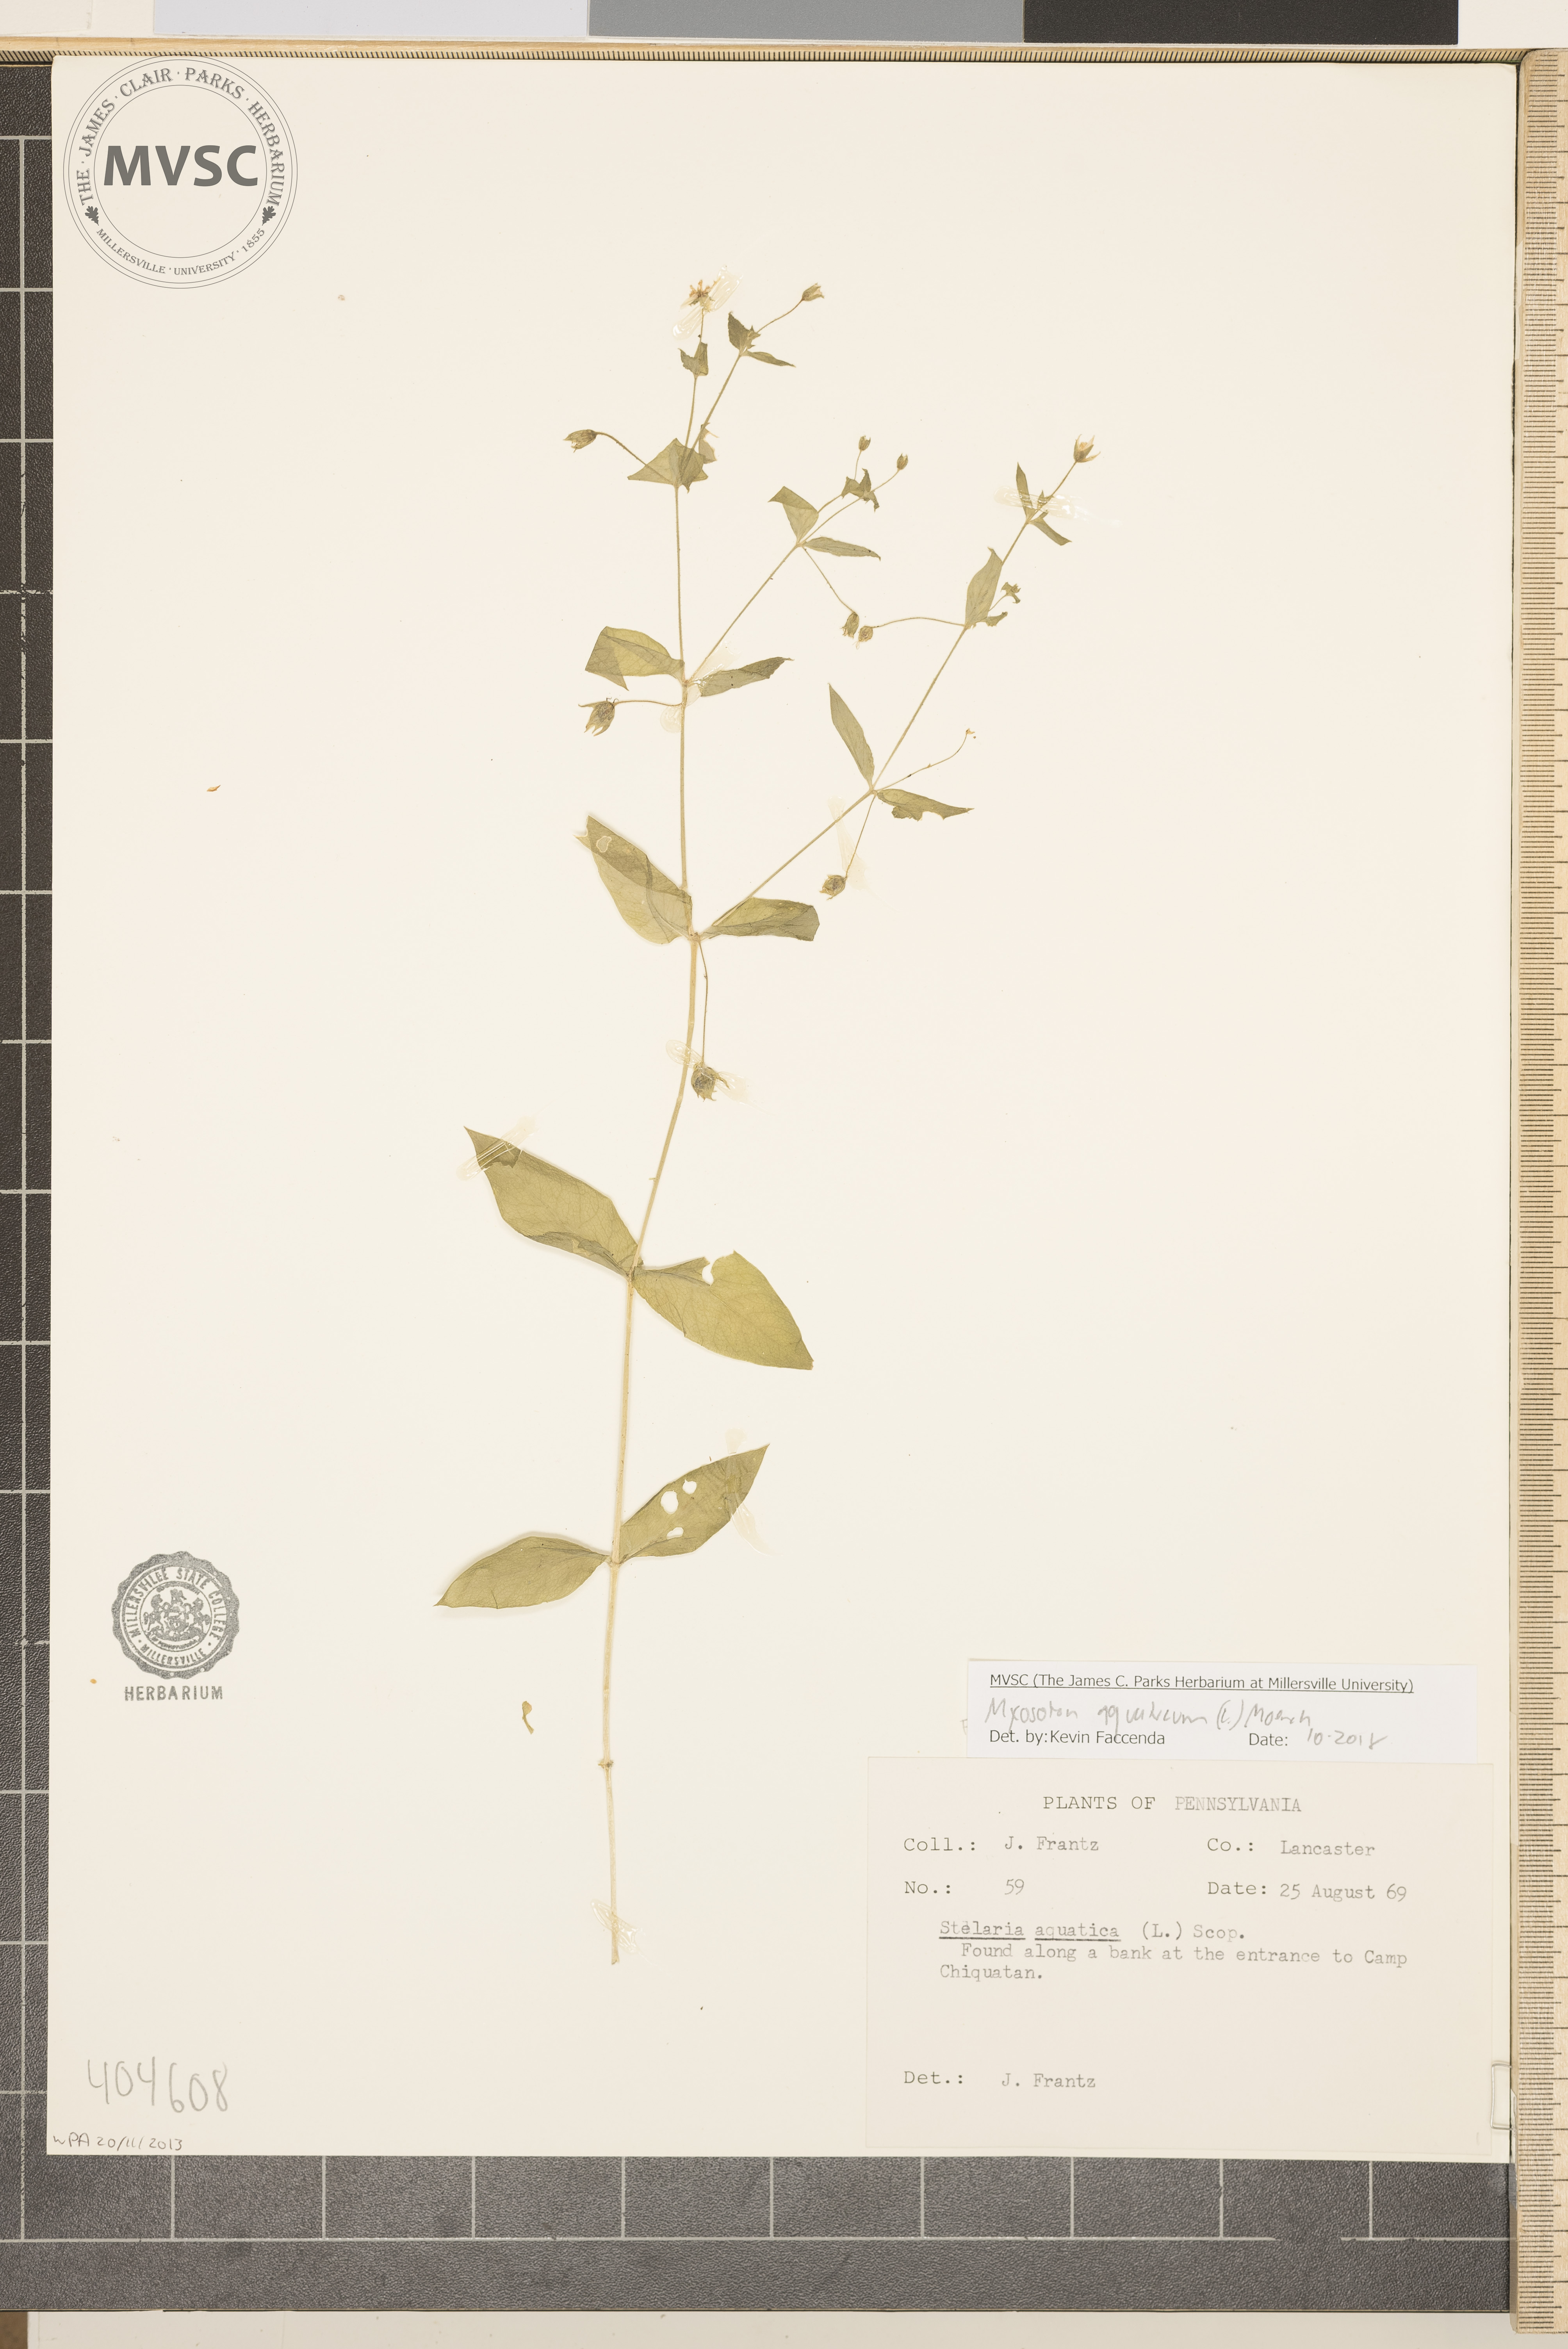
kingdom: Plantae
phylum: Tracheophyta
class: Magnoliopsida
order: Caryophyllales
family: Caryophyllaceae
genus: Stellaria
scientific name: Stellaria aquatica
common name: Water chickweed
